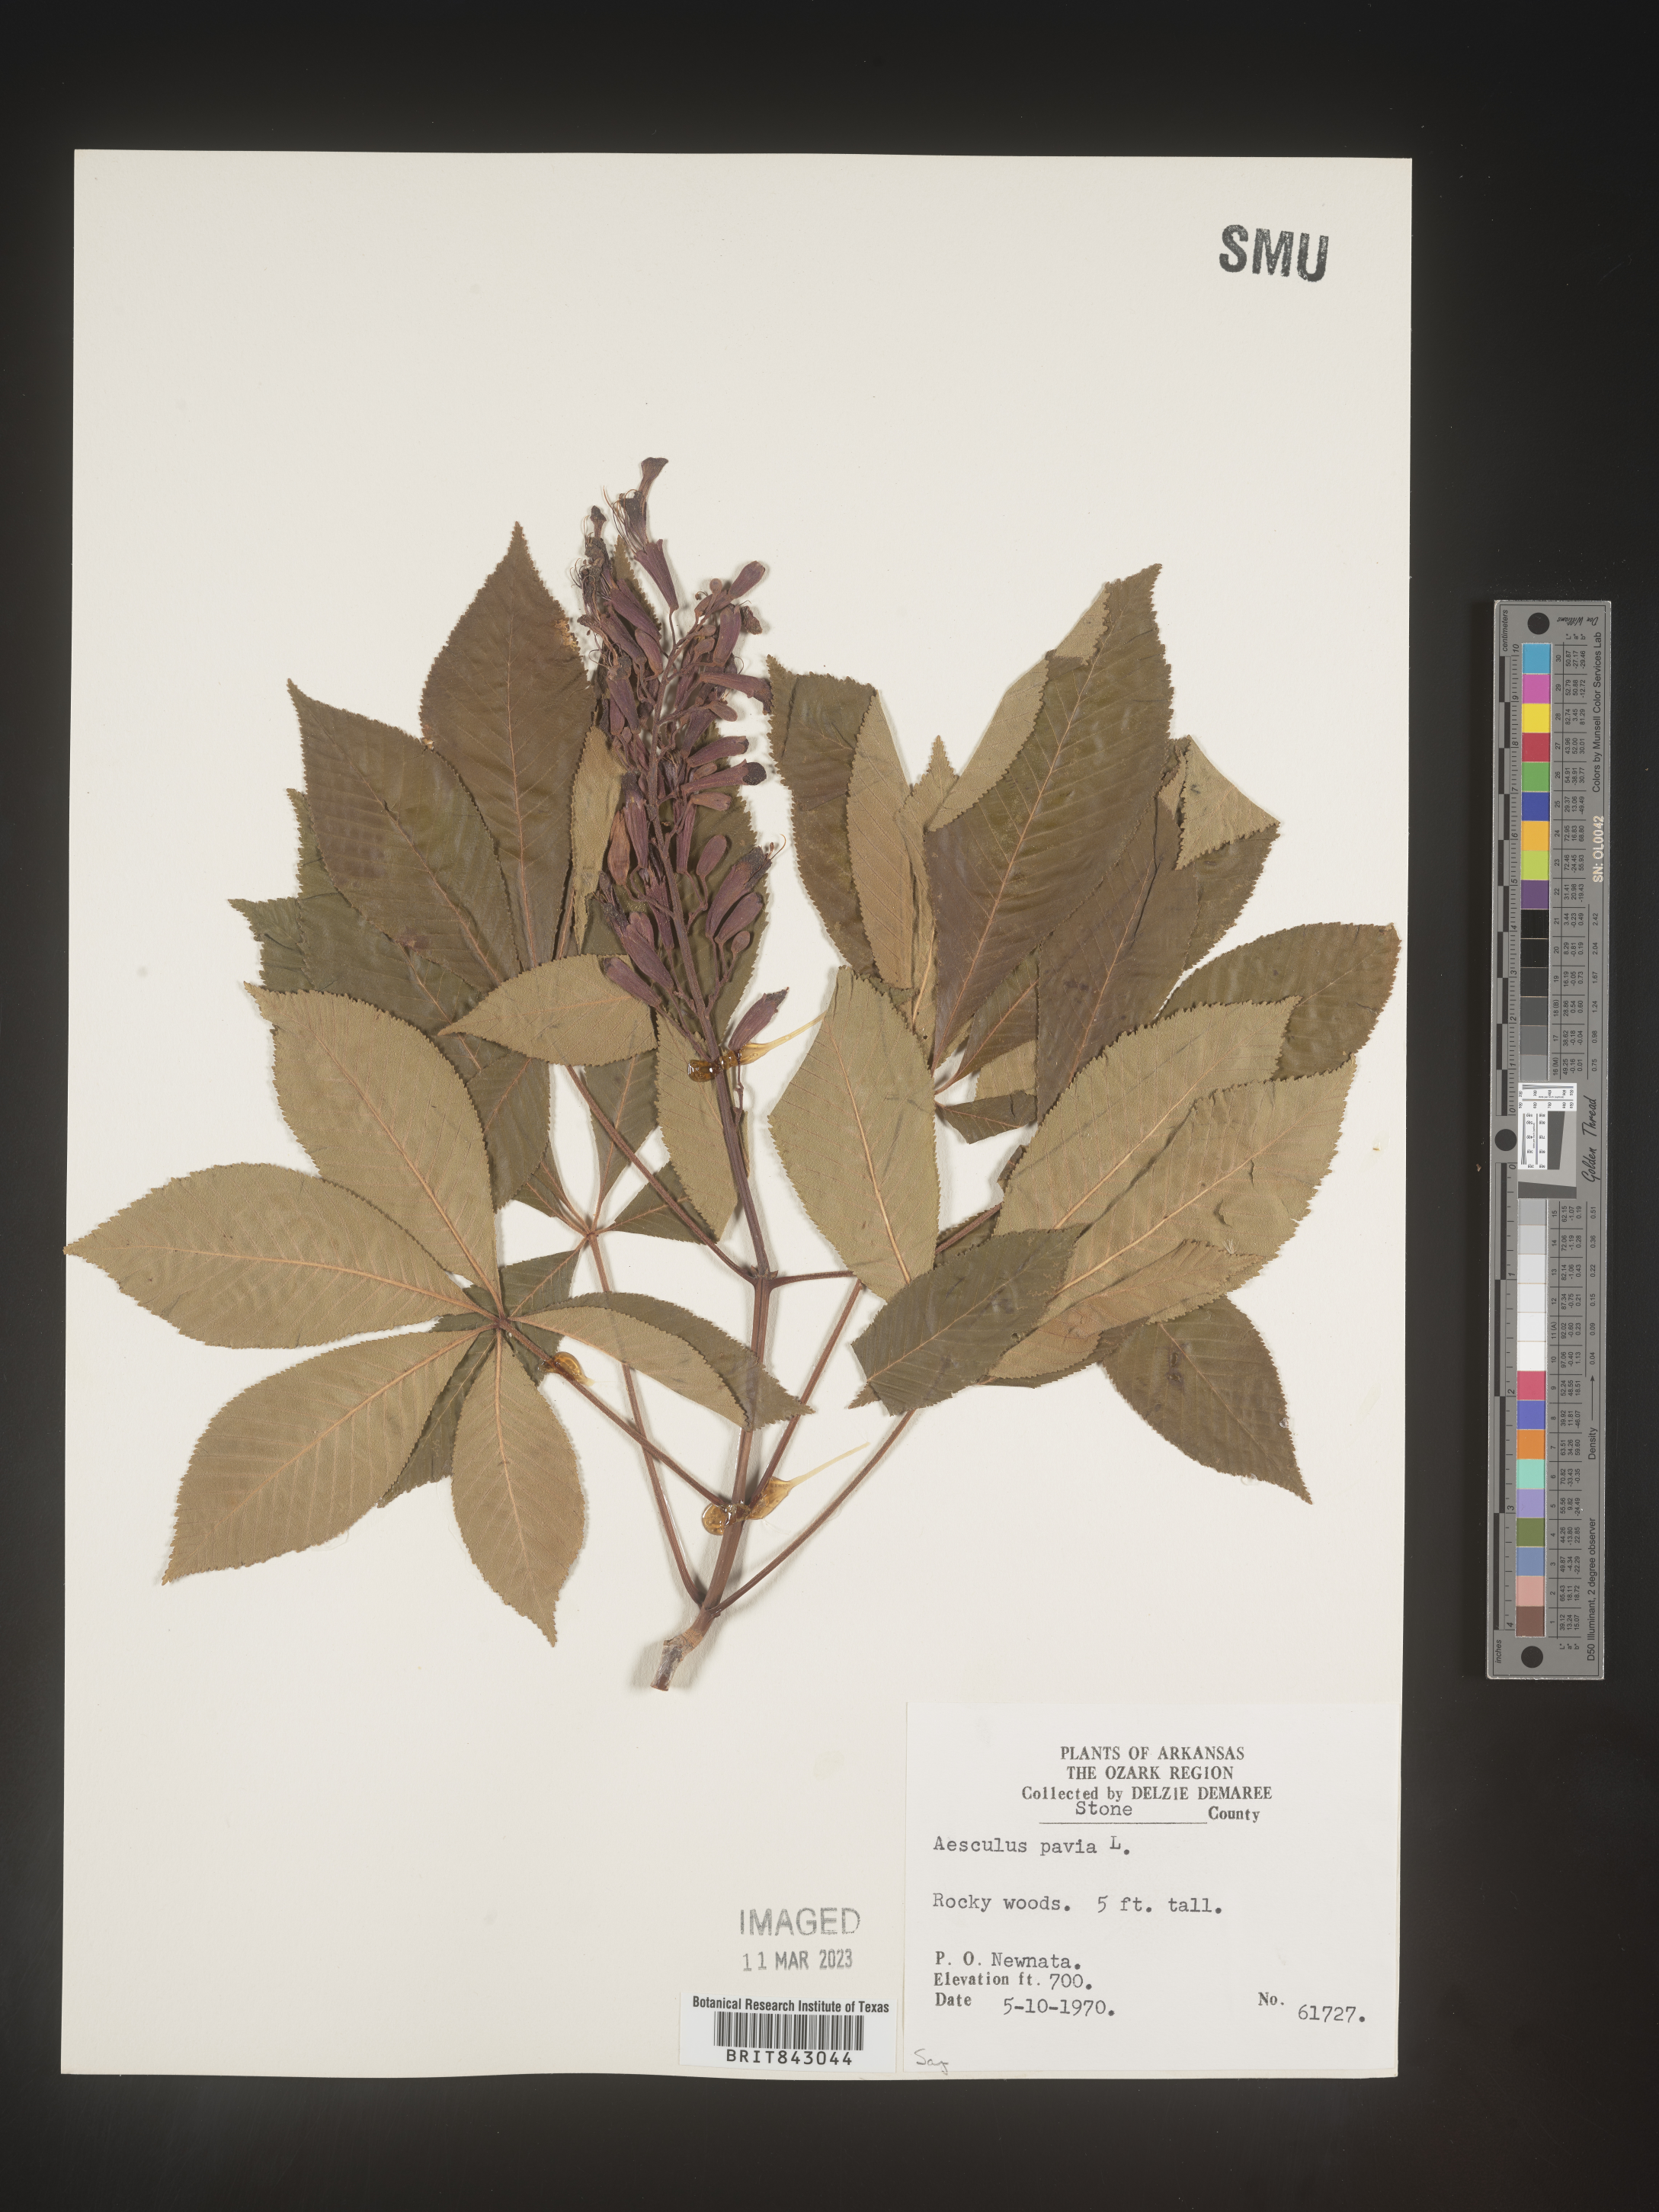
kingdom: Plantae
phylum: Tracheophyta
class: Magnoliopsida
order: Sapindales
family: Sapindaceae
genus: Aesculus
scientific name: Aesculus pavia
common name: Red buckeye
